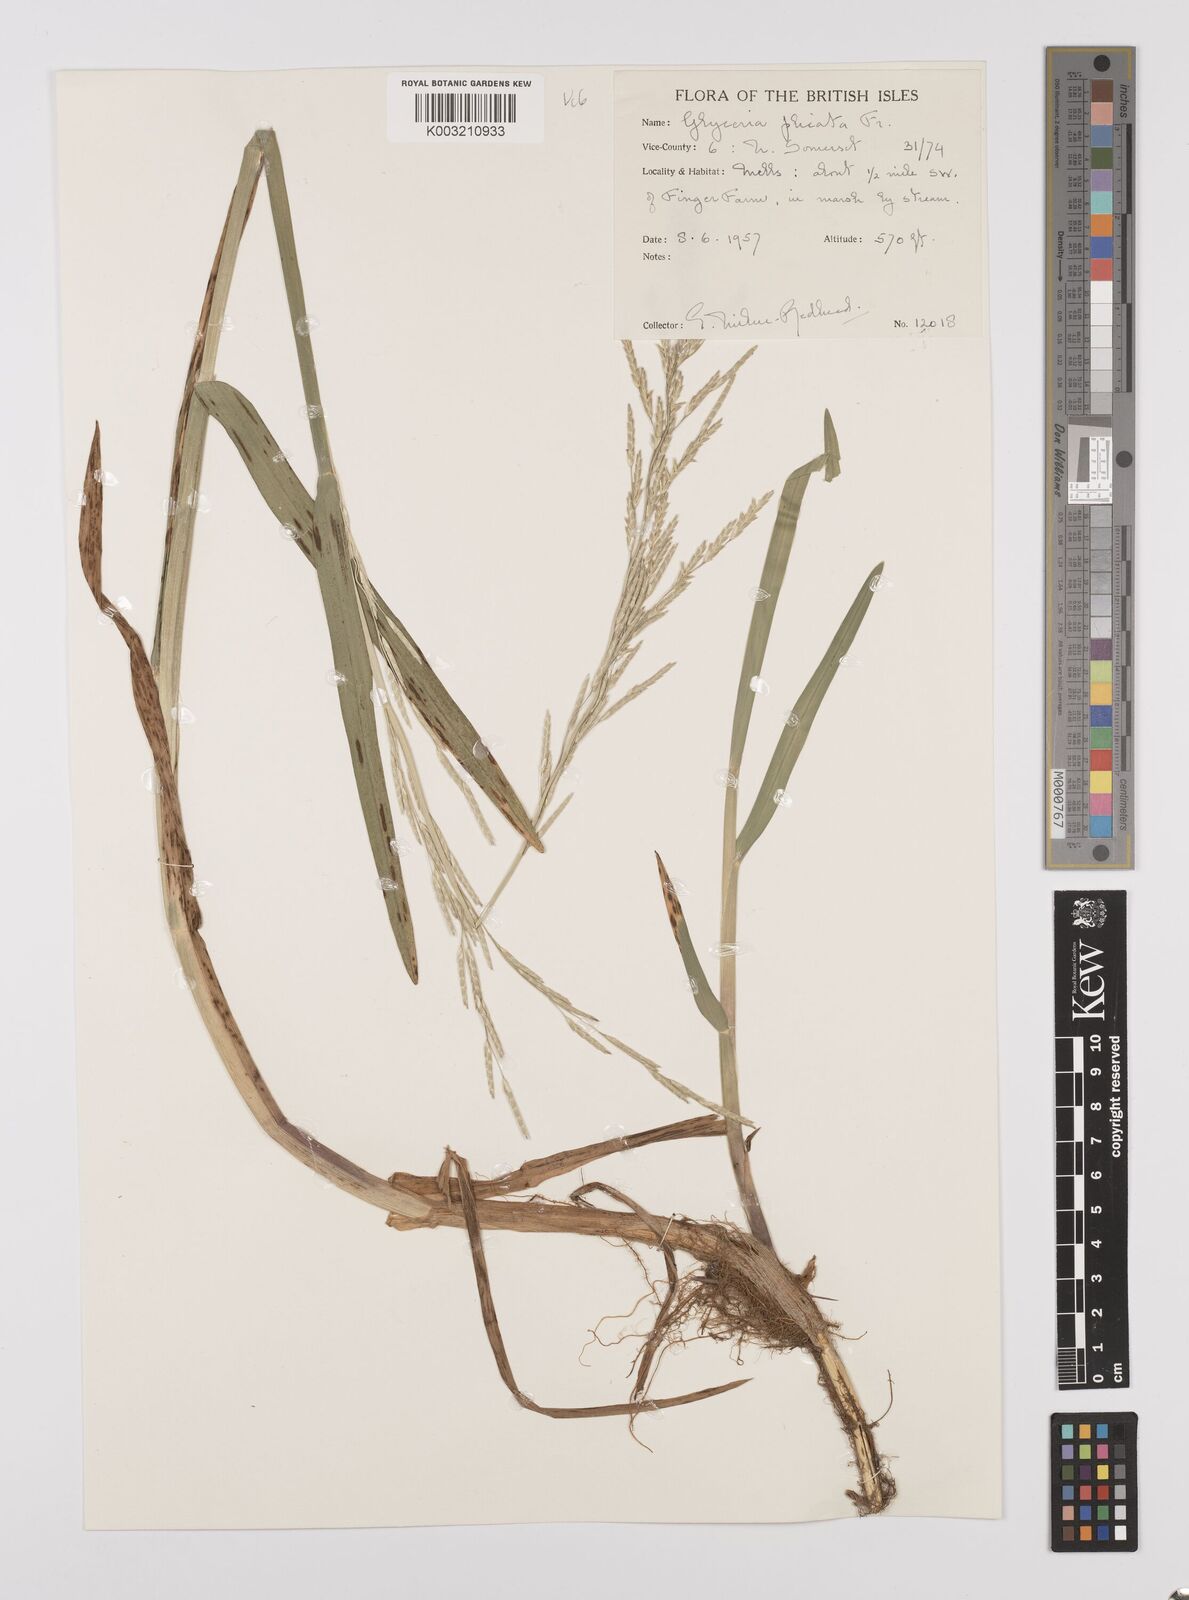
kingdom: Plantae
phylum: Tracheophyta
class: Liliopsida
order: Poales
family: Poaceae
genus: Glyceria
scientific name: Glyceria notata
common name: Plicate sweet-grass
